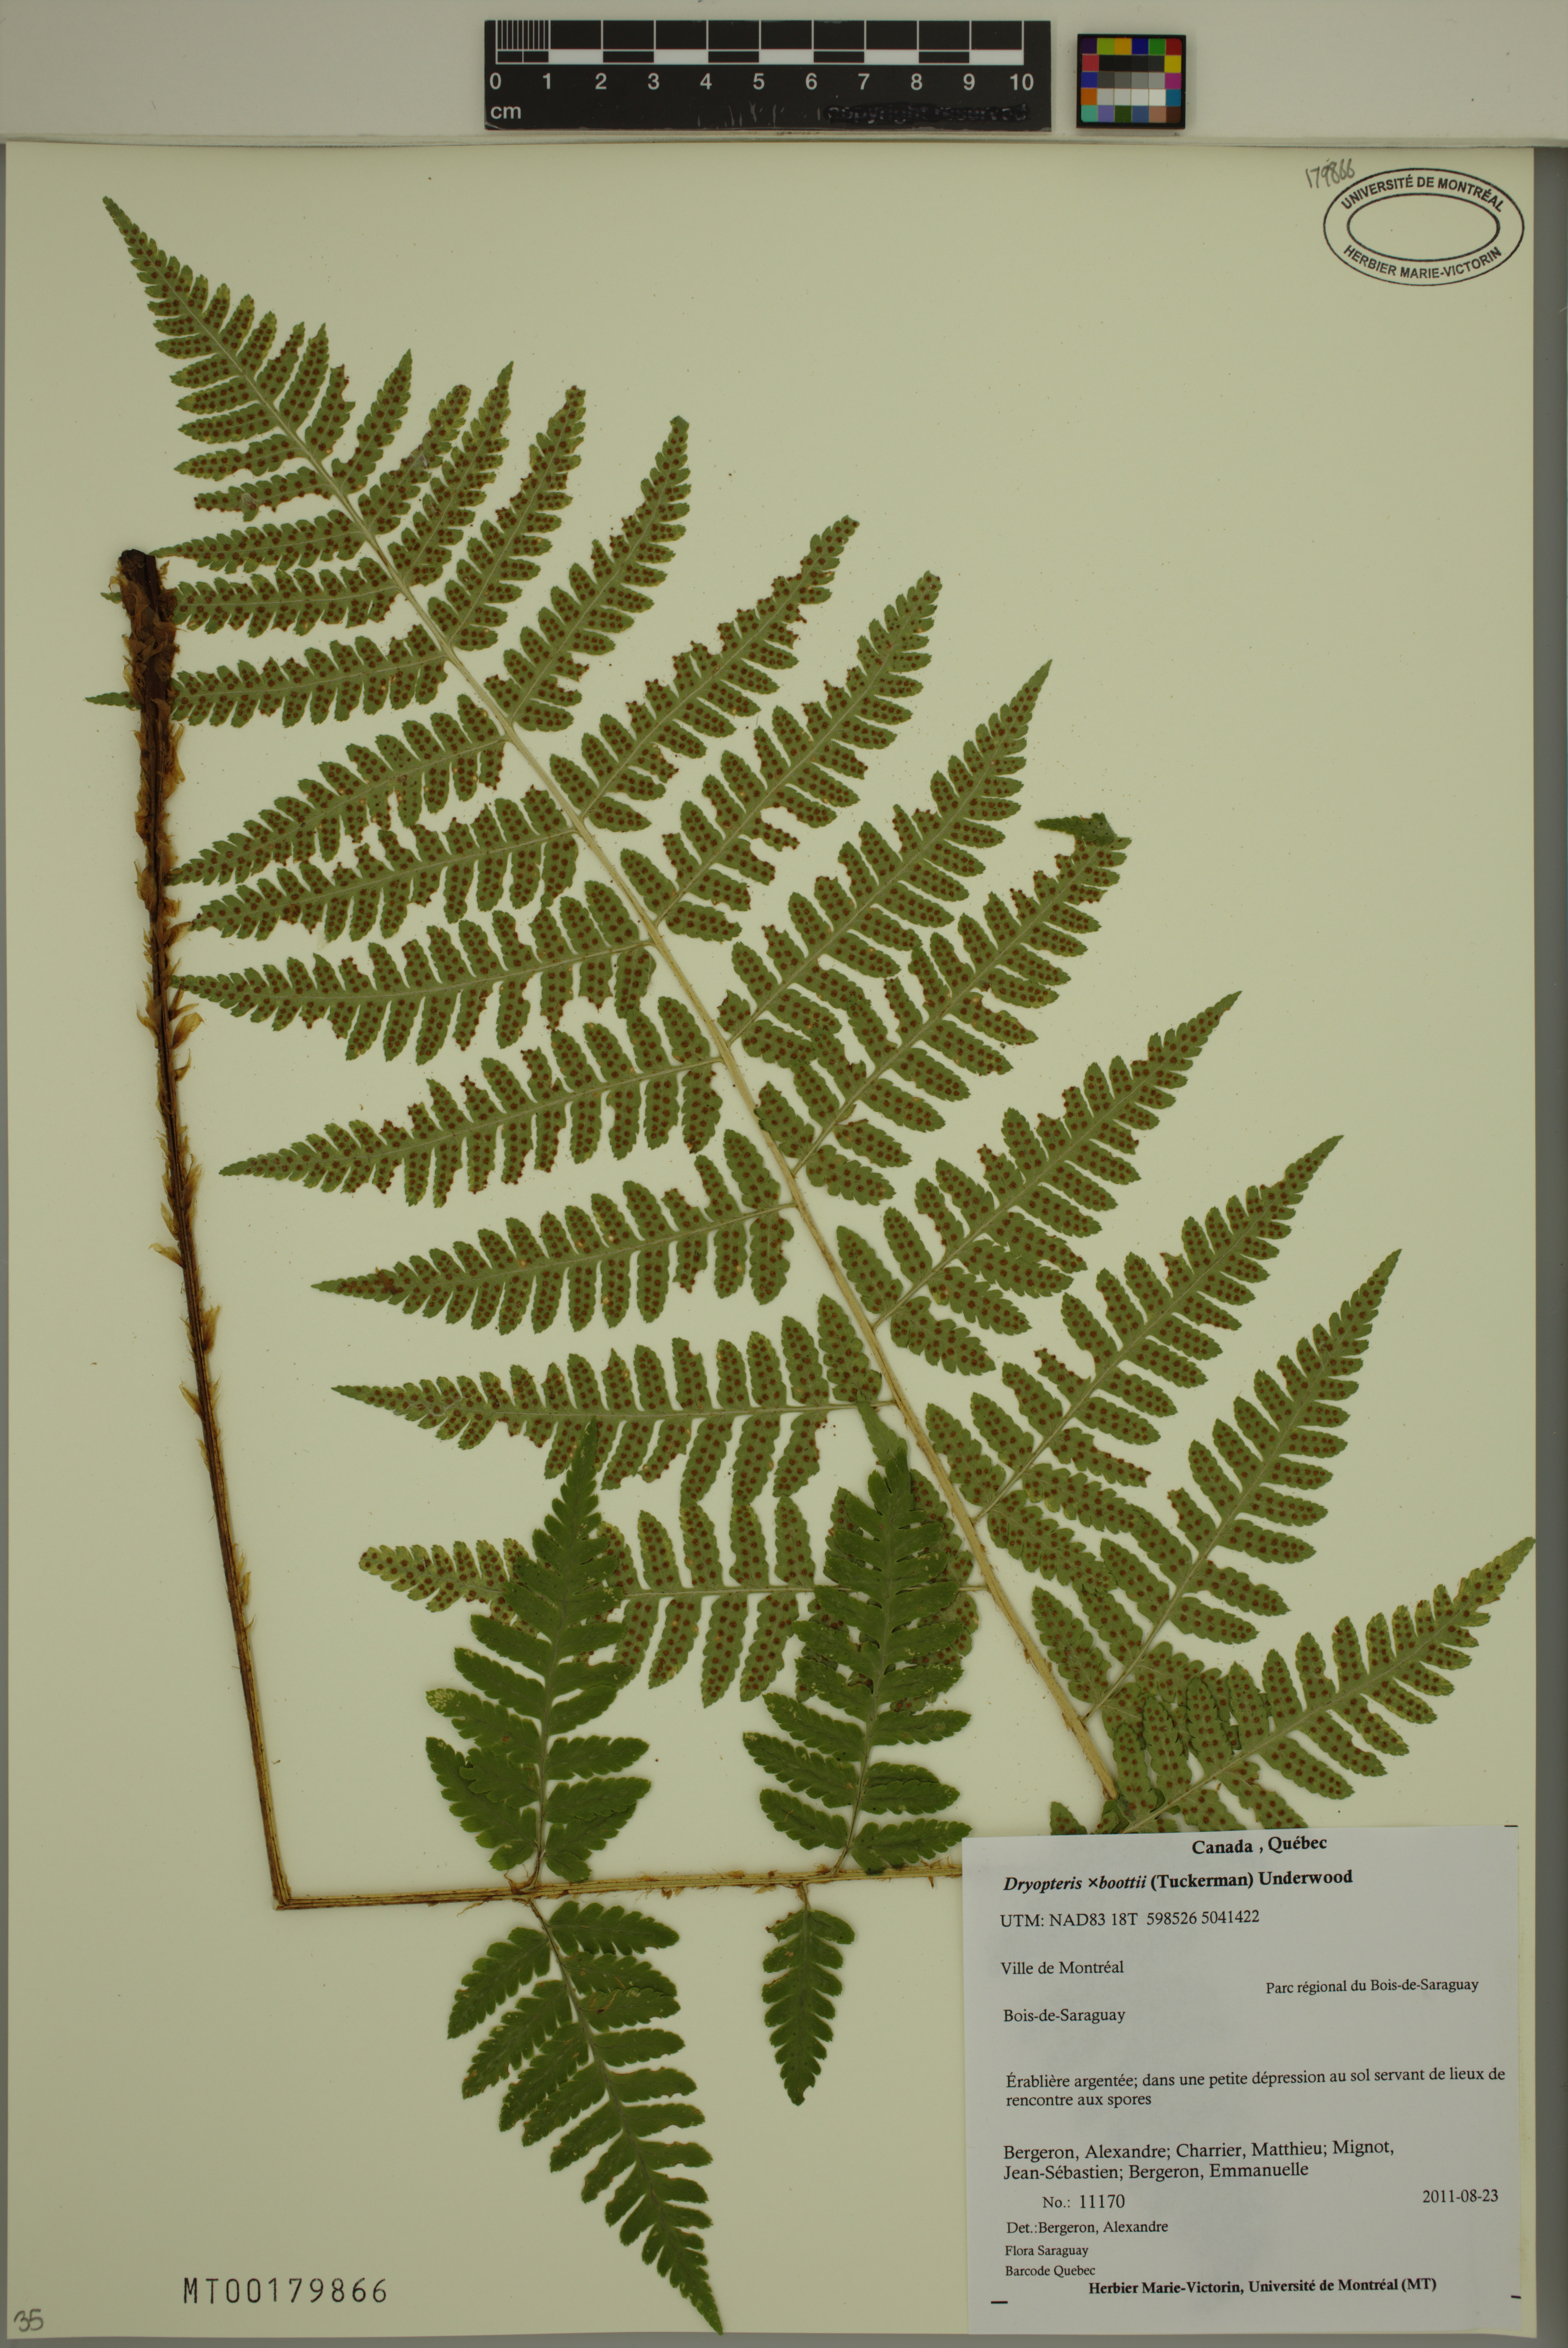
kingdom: Plantae
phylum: Tracheophyta
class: Polypodiopsida
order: Polypodiales
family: Dryopteridaceae
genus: Dryopteris
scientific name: Dryopteris boottii
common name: Boott's fern
